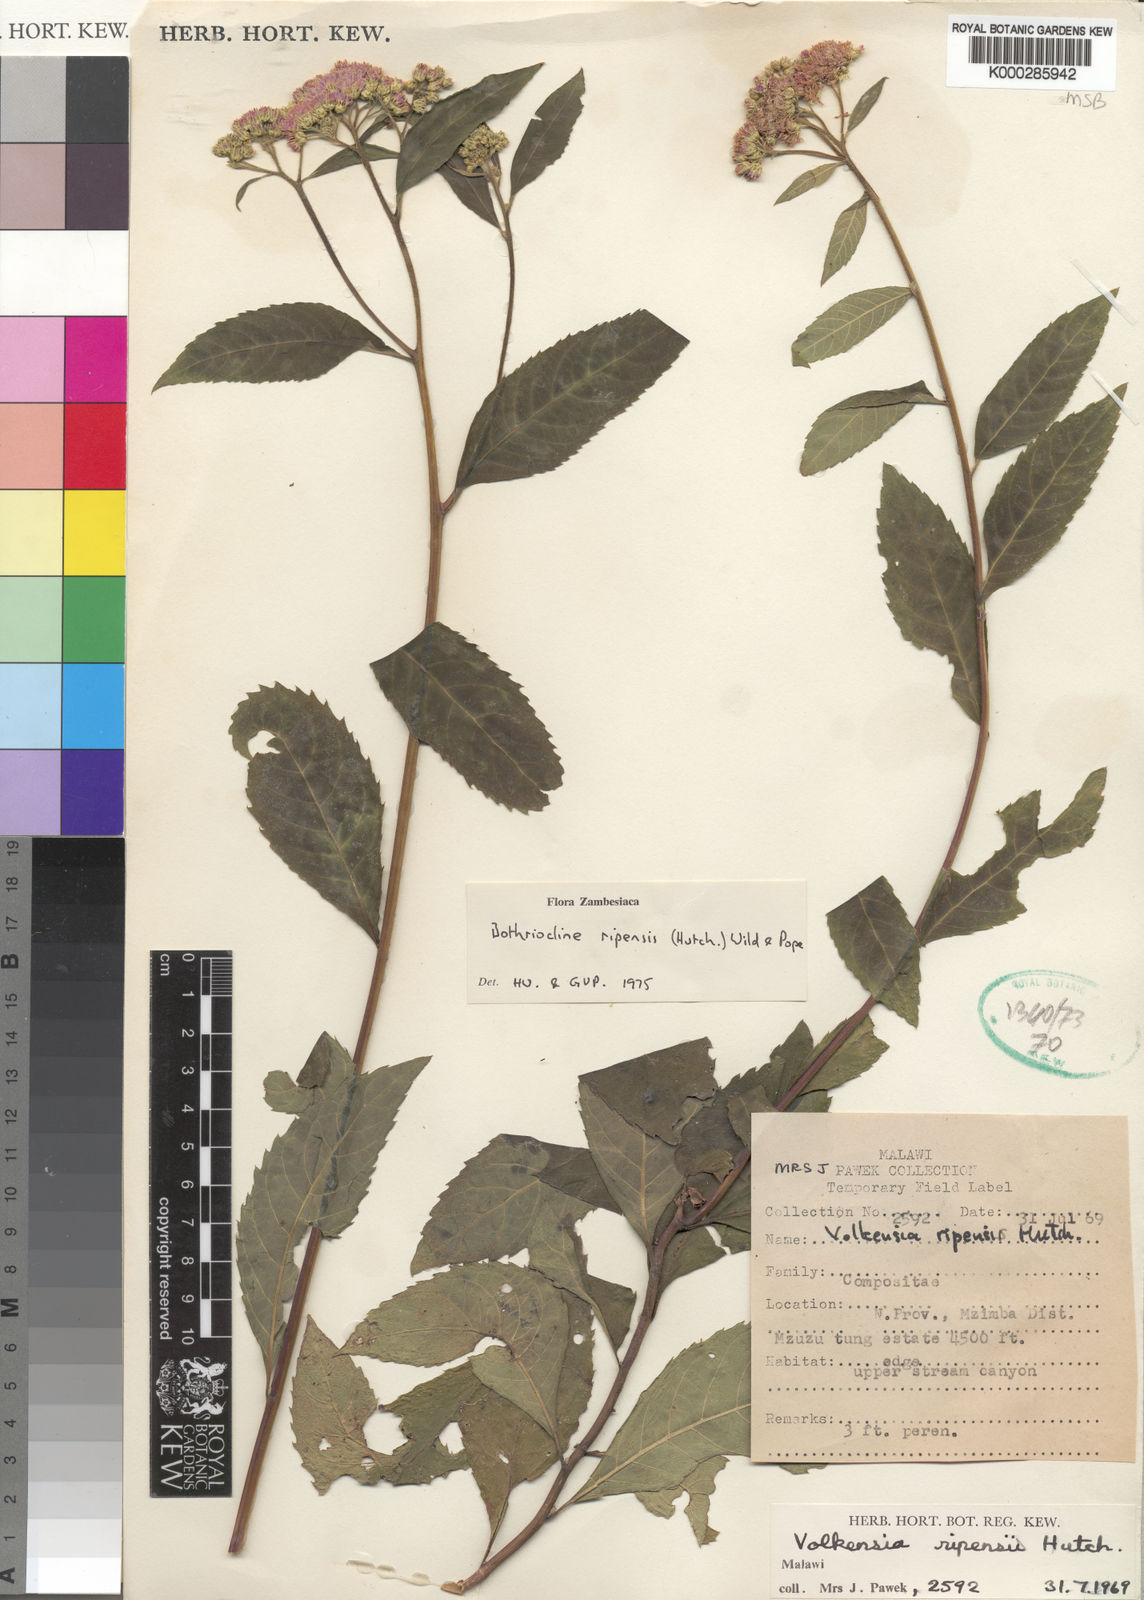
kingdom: Plantae
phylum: Tracheophyta
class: Magnoliopsida
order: Asterales
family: Asteraceae
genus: Bothriocline
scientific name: Bothriocline ripensis
